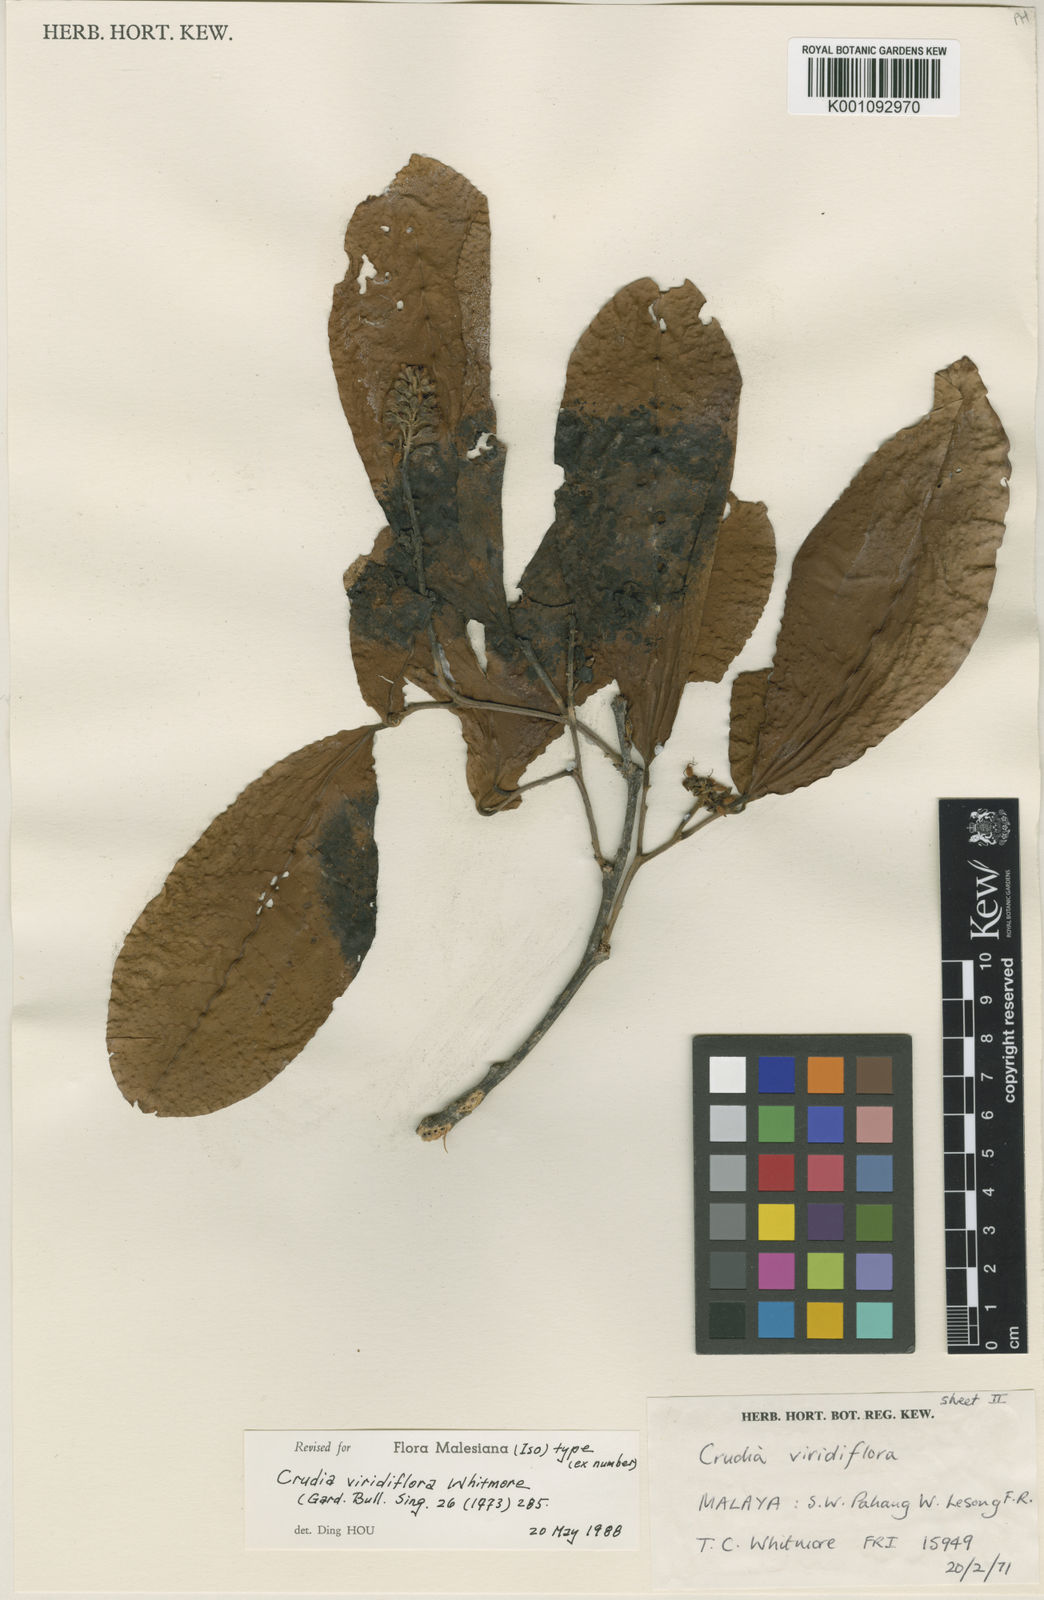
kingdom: Plantae
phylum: Tracheophyta
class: Magnoliopsida
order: Fabales
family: Fabaceae
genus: Crudia
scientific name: Crudia viridiflora
